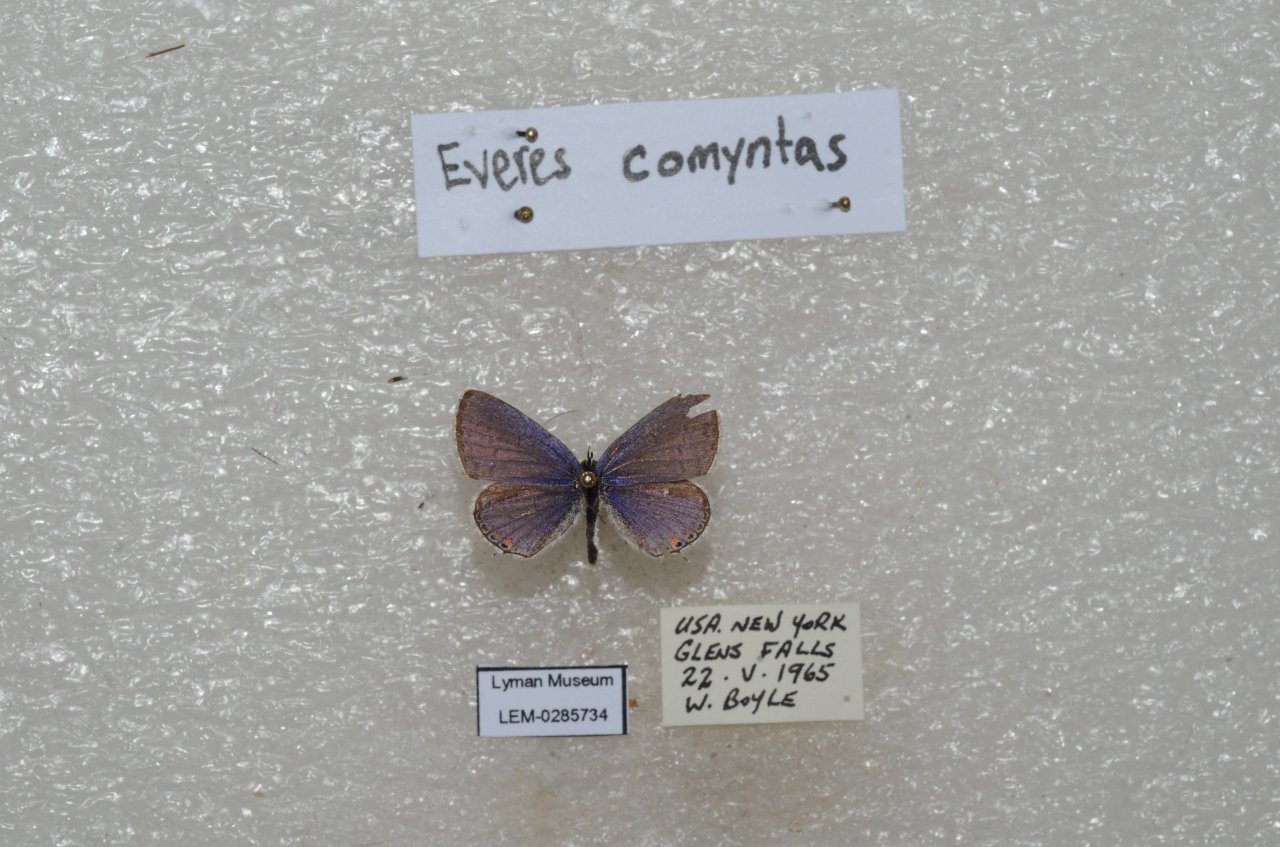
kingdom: Animalia
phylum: Arthropoda
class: Insecta
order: Lepidoptera
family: Lycaenidae
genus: Elkalyce
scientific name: Elkalyce comyntas
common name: Eastern Tailed-Blue
